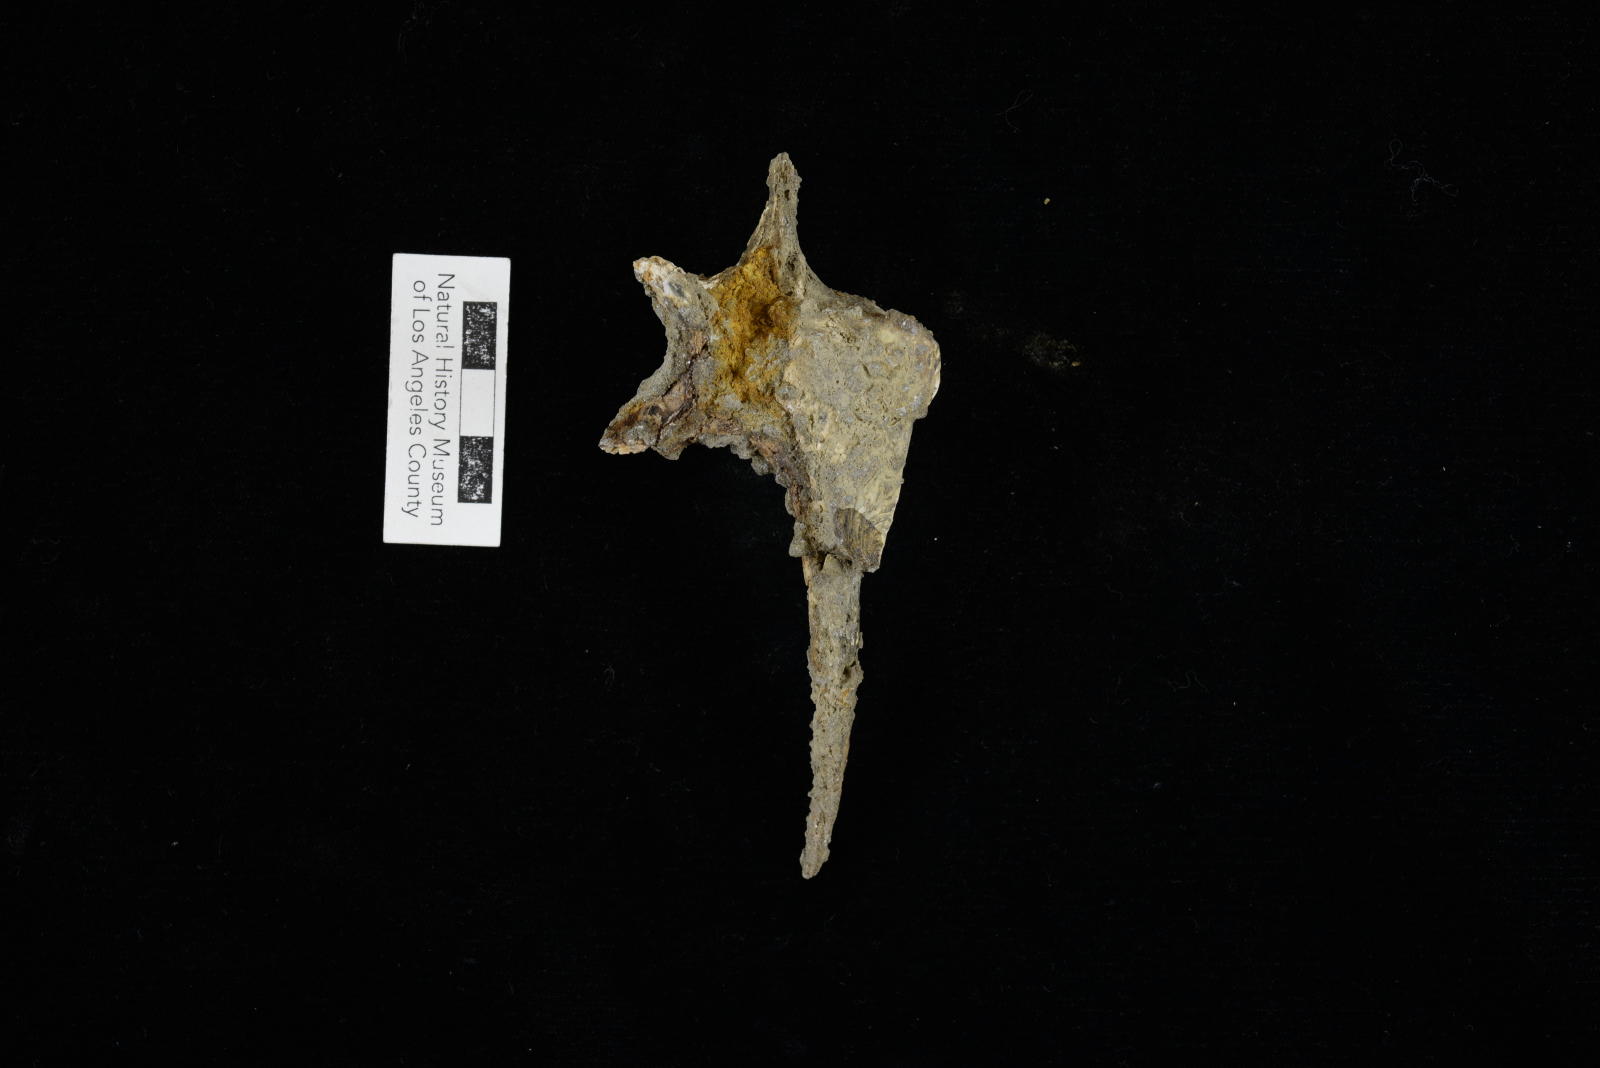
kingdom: Animalia
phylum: Mollusca
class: Gastropoda
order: Littorinimorpha
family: Aporrhaidae
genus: Tessarolax
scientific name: Tessarolax incrustata
